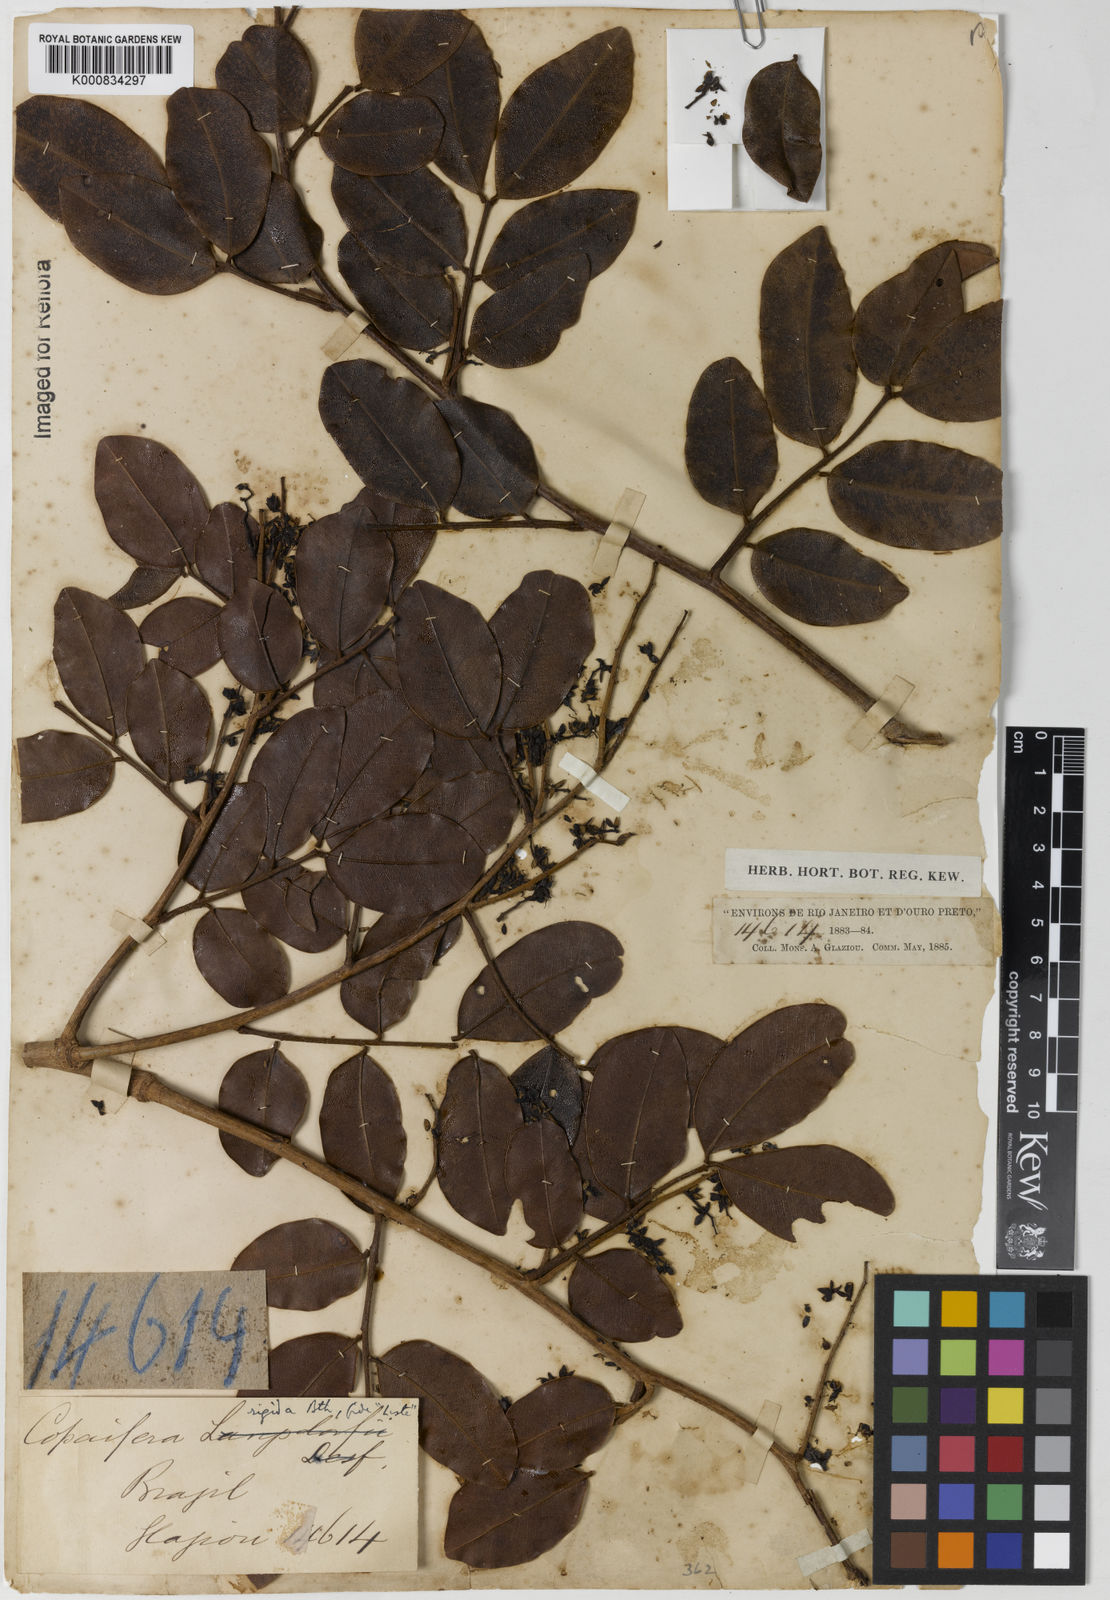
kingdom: Plantae
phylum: Tracheophyta
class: Magnoliopsida
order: Fabales
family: Fabaceae
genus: Copaifera
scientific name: Copaifera martii
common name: Copaiba
